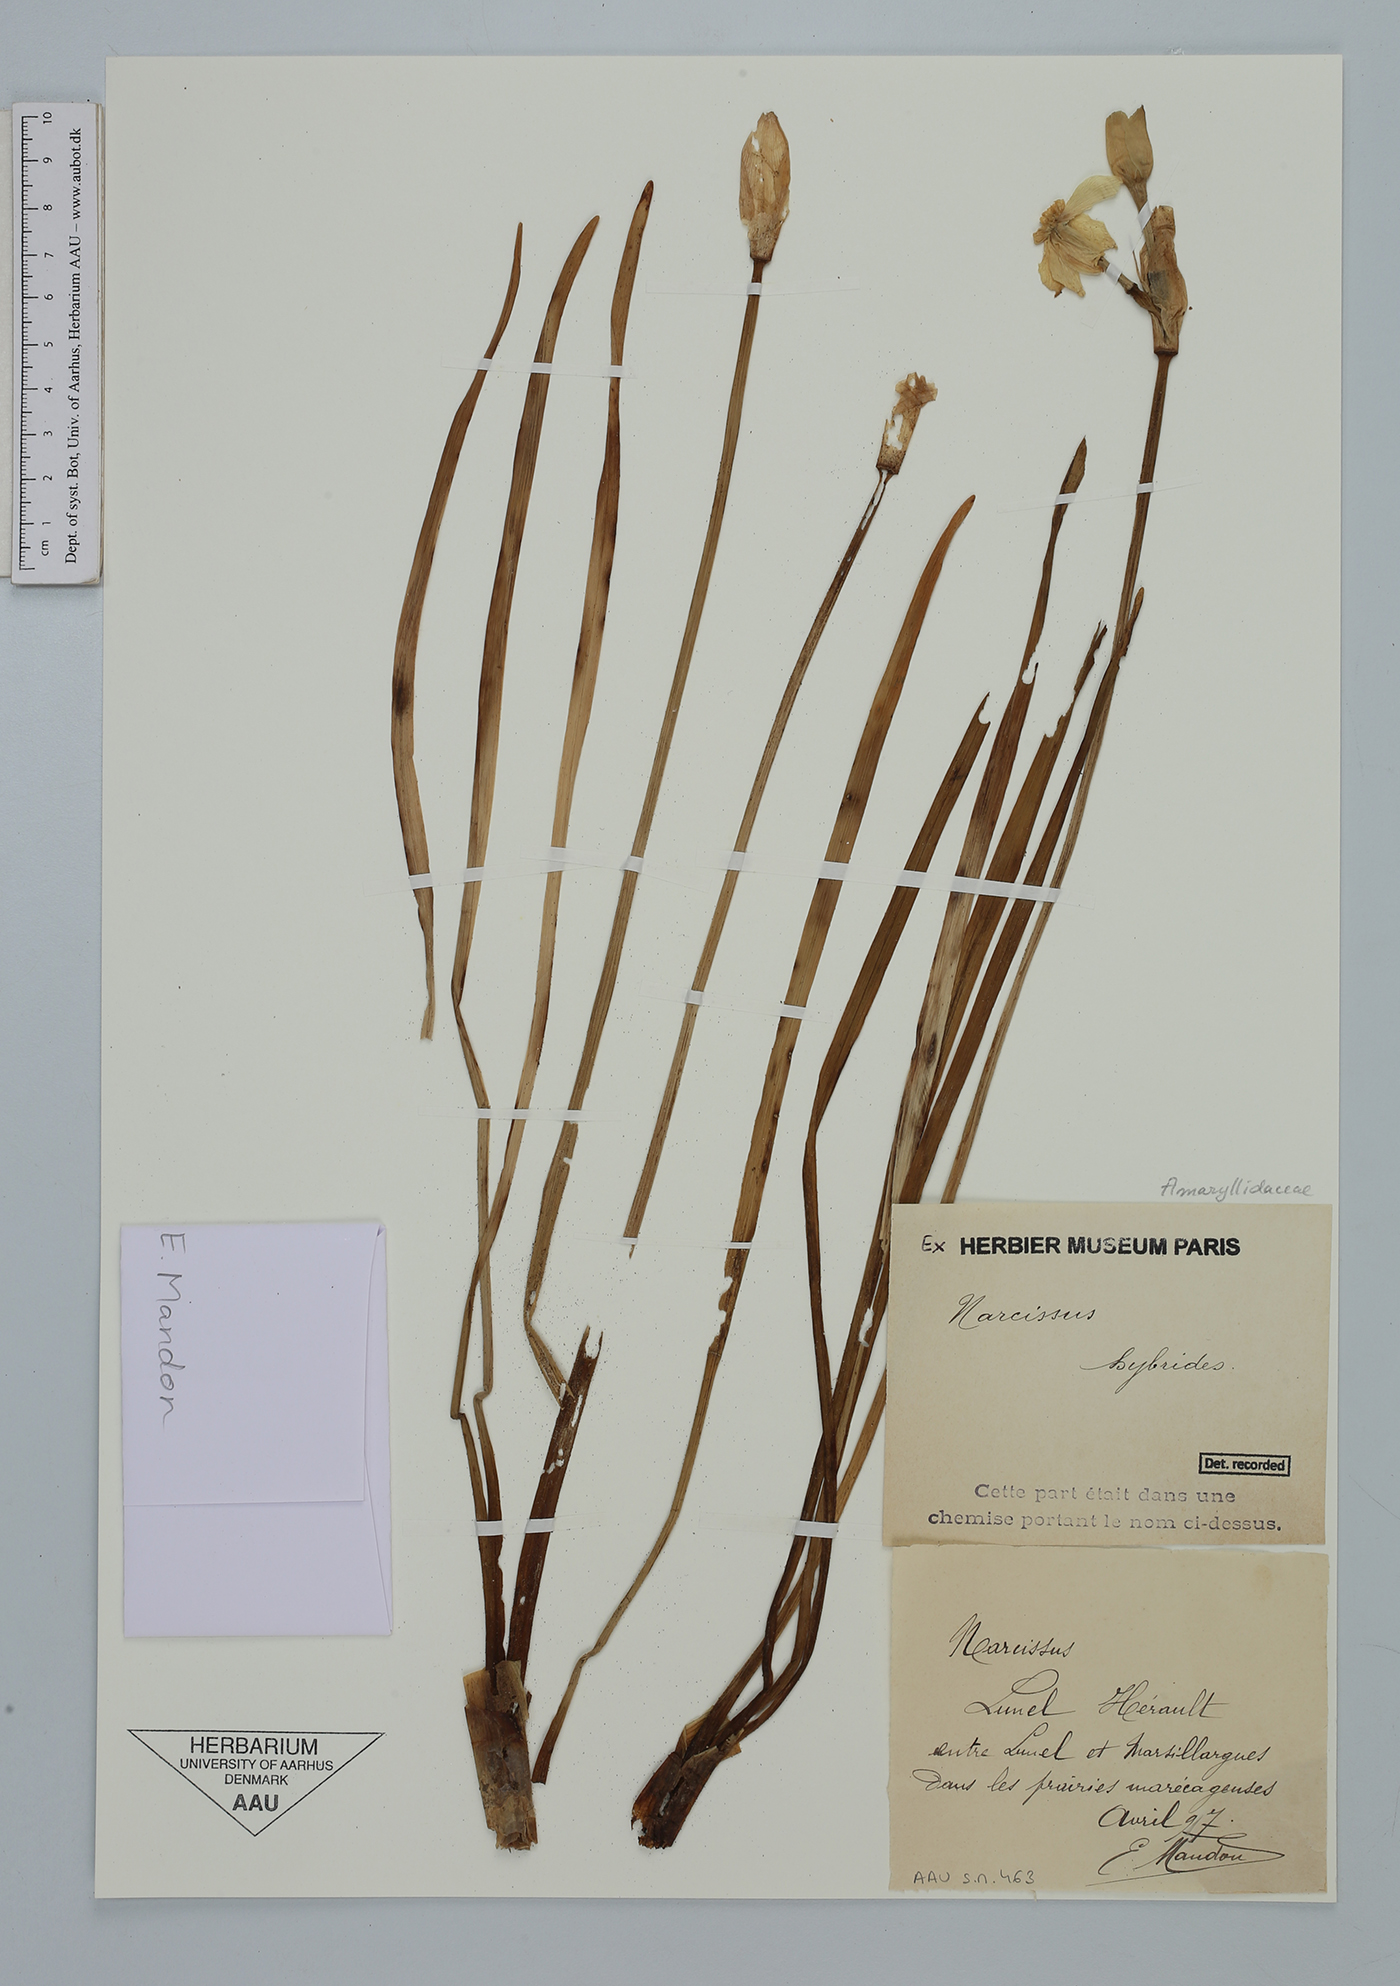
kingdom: Plantae
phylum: Tracheophyta
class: Liliopsida
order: Asparagales
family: Amaryllidaceae
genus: Narcissus
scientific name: Narcissus
